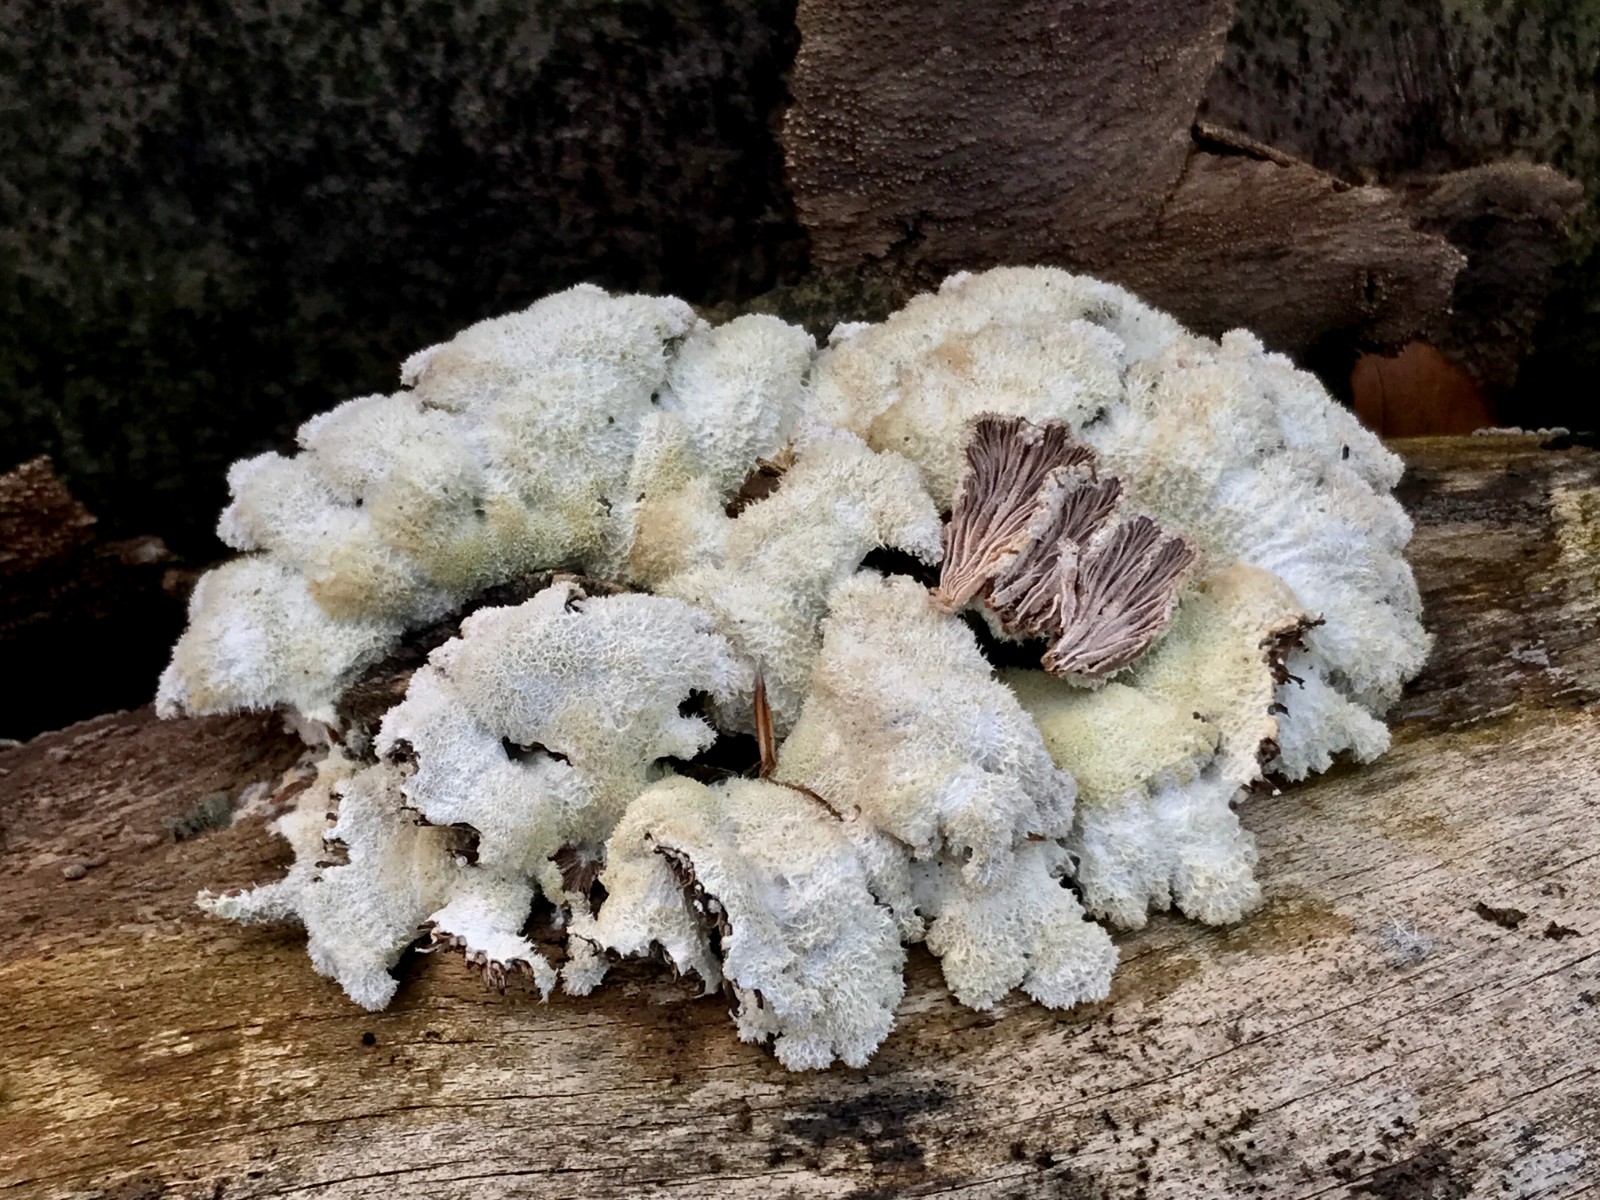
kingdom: Fungi
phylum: Basidiomycota
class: Agaricomycetes
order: Agaricales
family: Schizophyllaceae
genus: Schizophyllum
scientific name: Schizophyllum commune
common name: kløvblad
